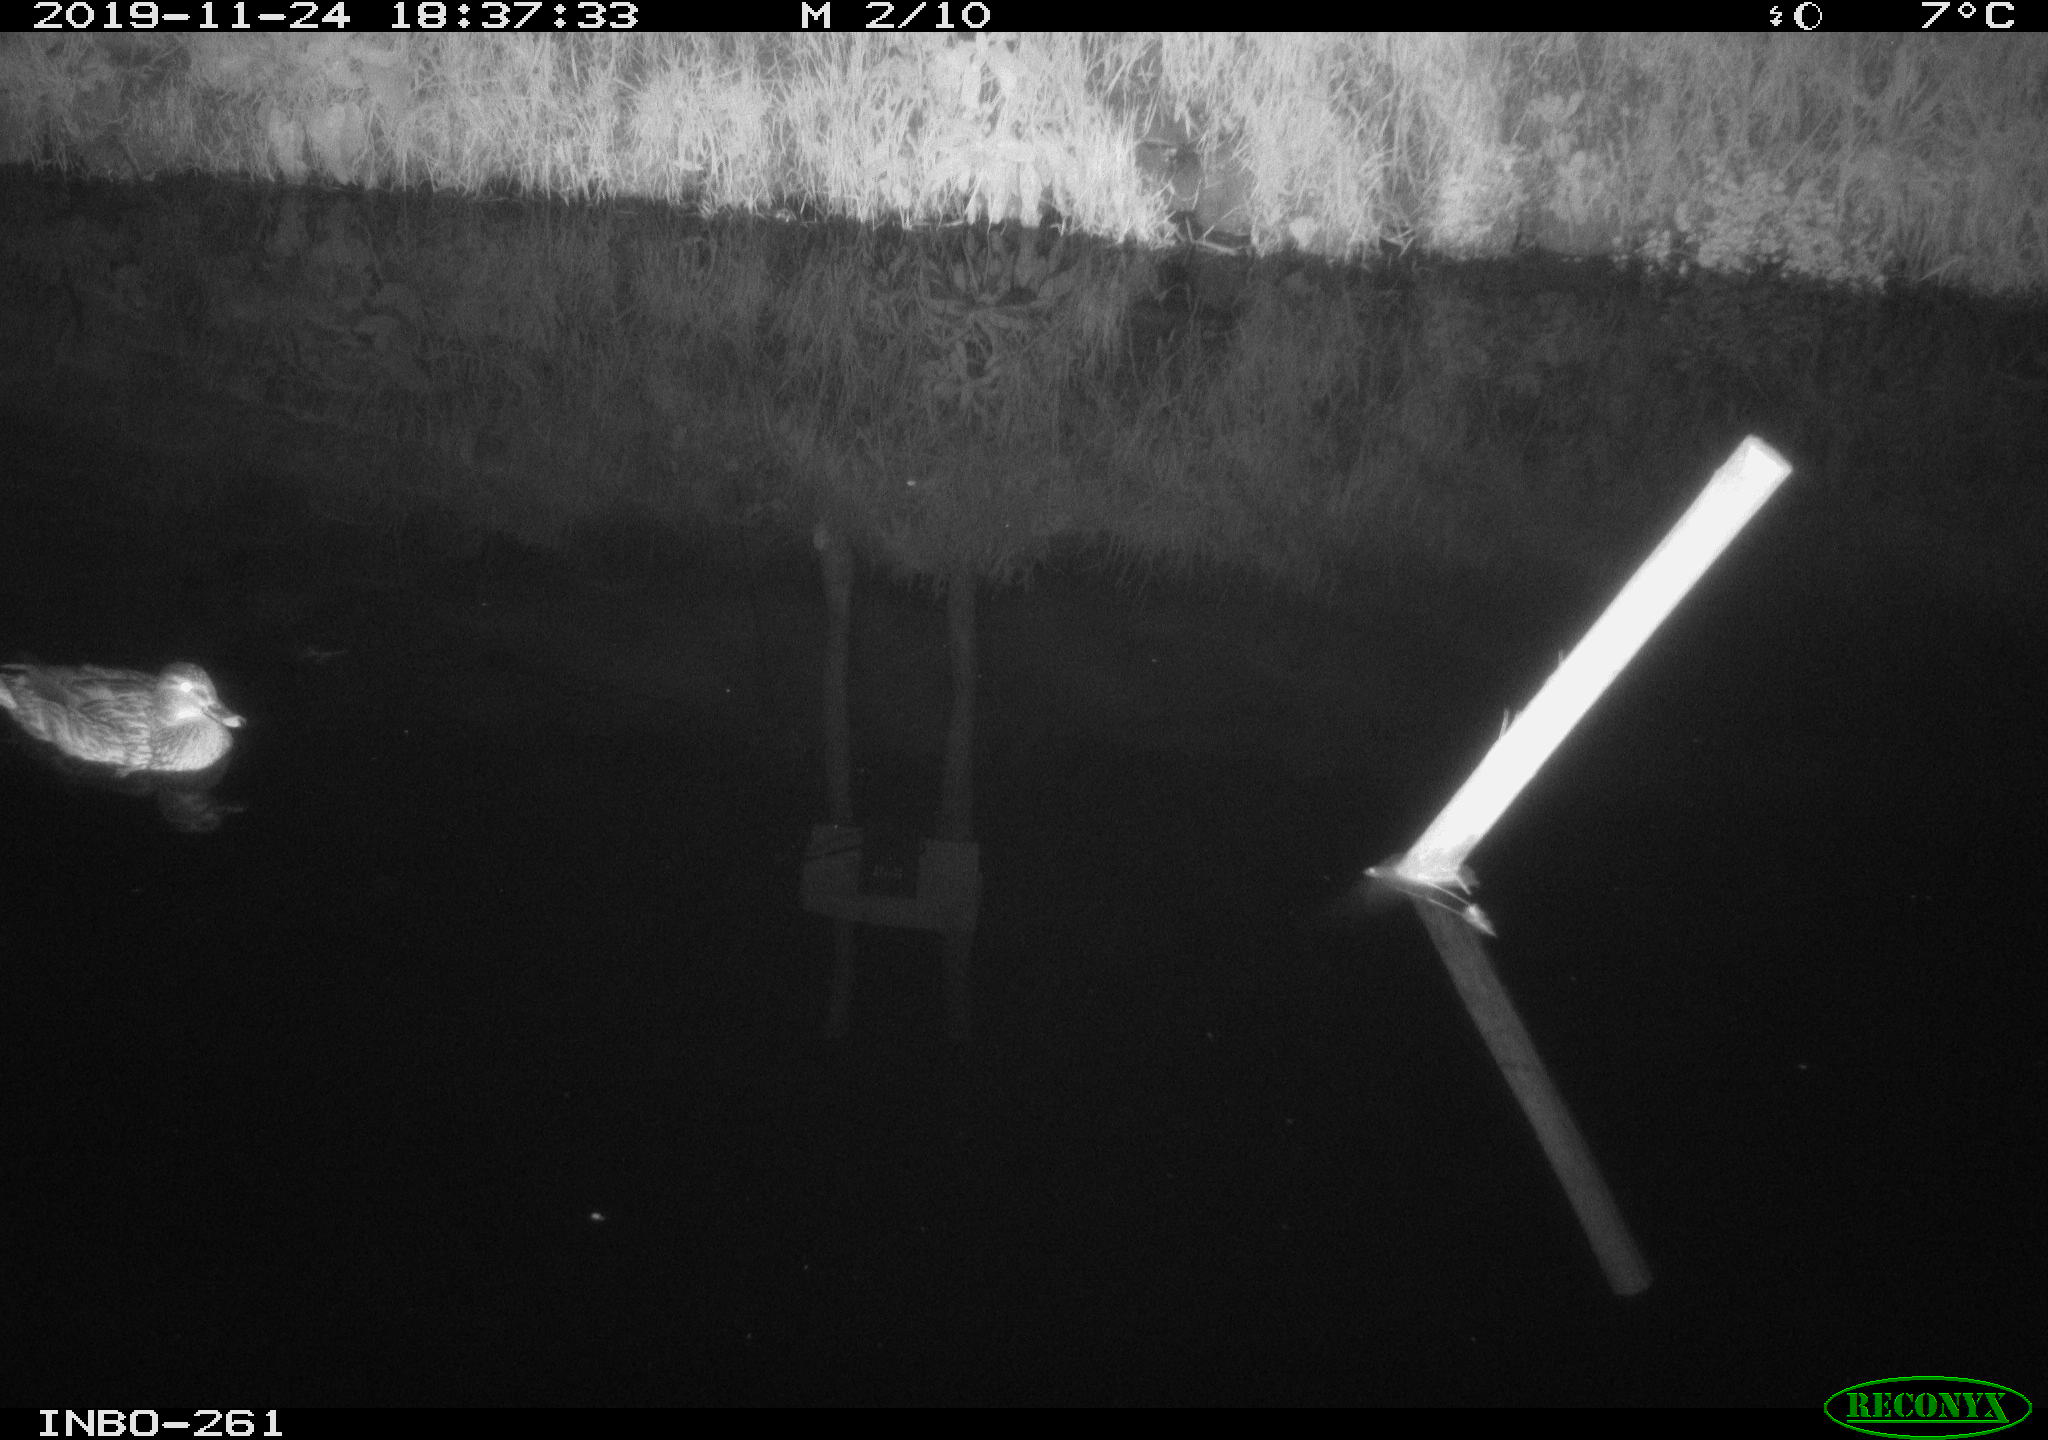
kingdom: Animalia
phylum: Chordata
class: Aves
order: Anseriformes
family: Anatidae
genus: Anas
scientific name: Anas platyrhynchos
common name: Mallard
